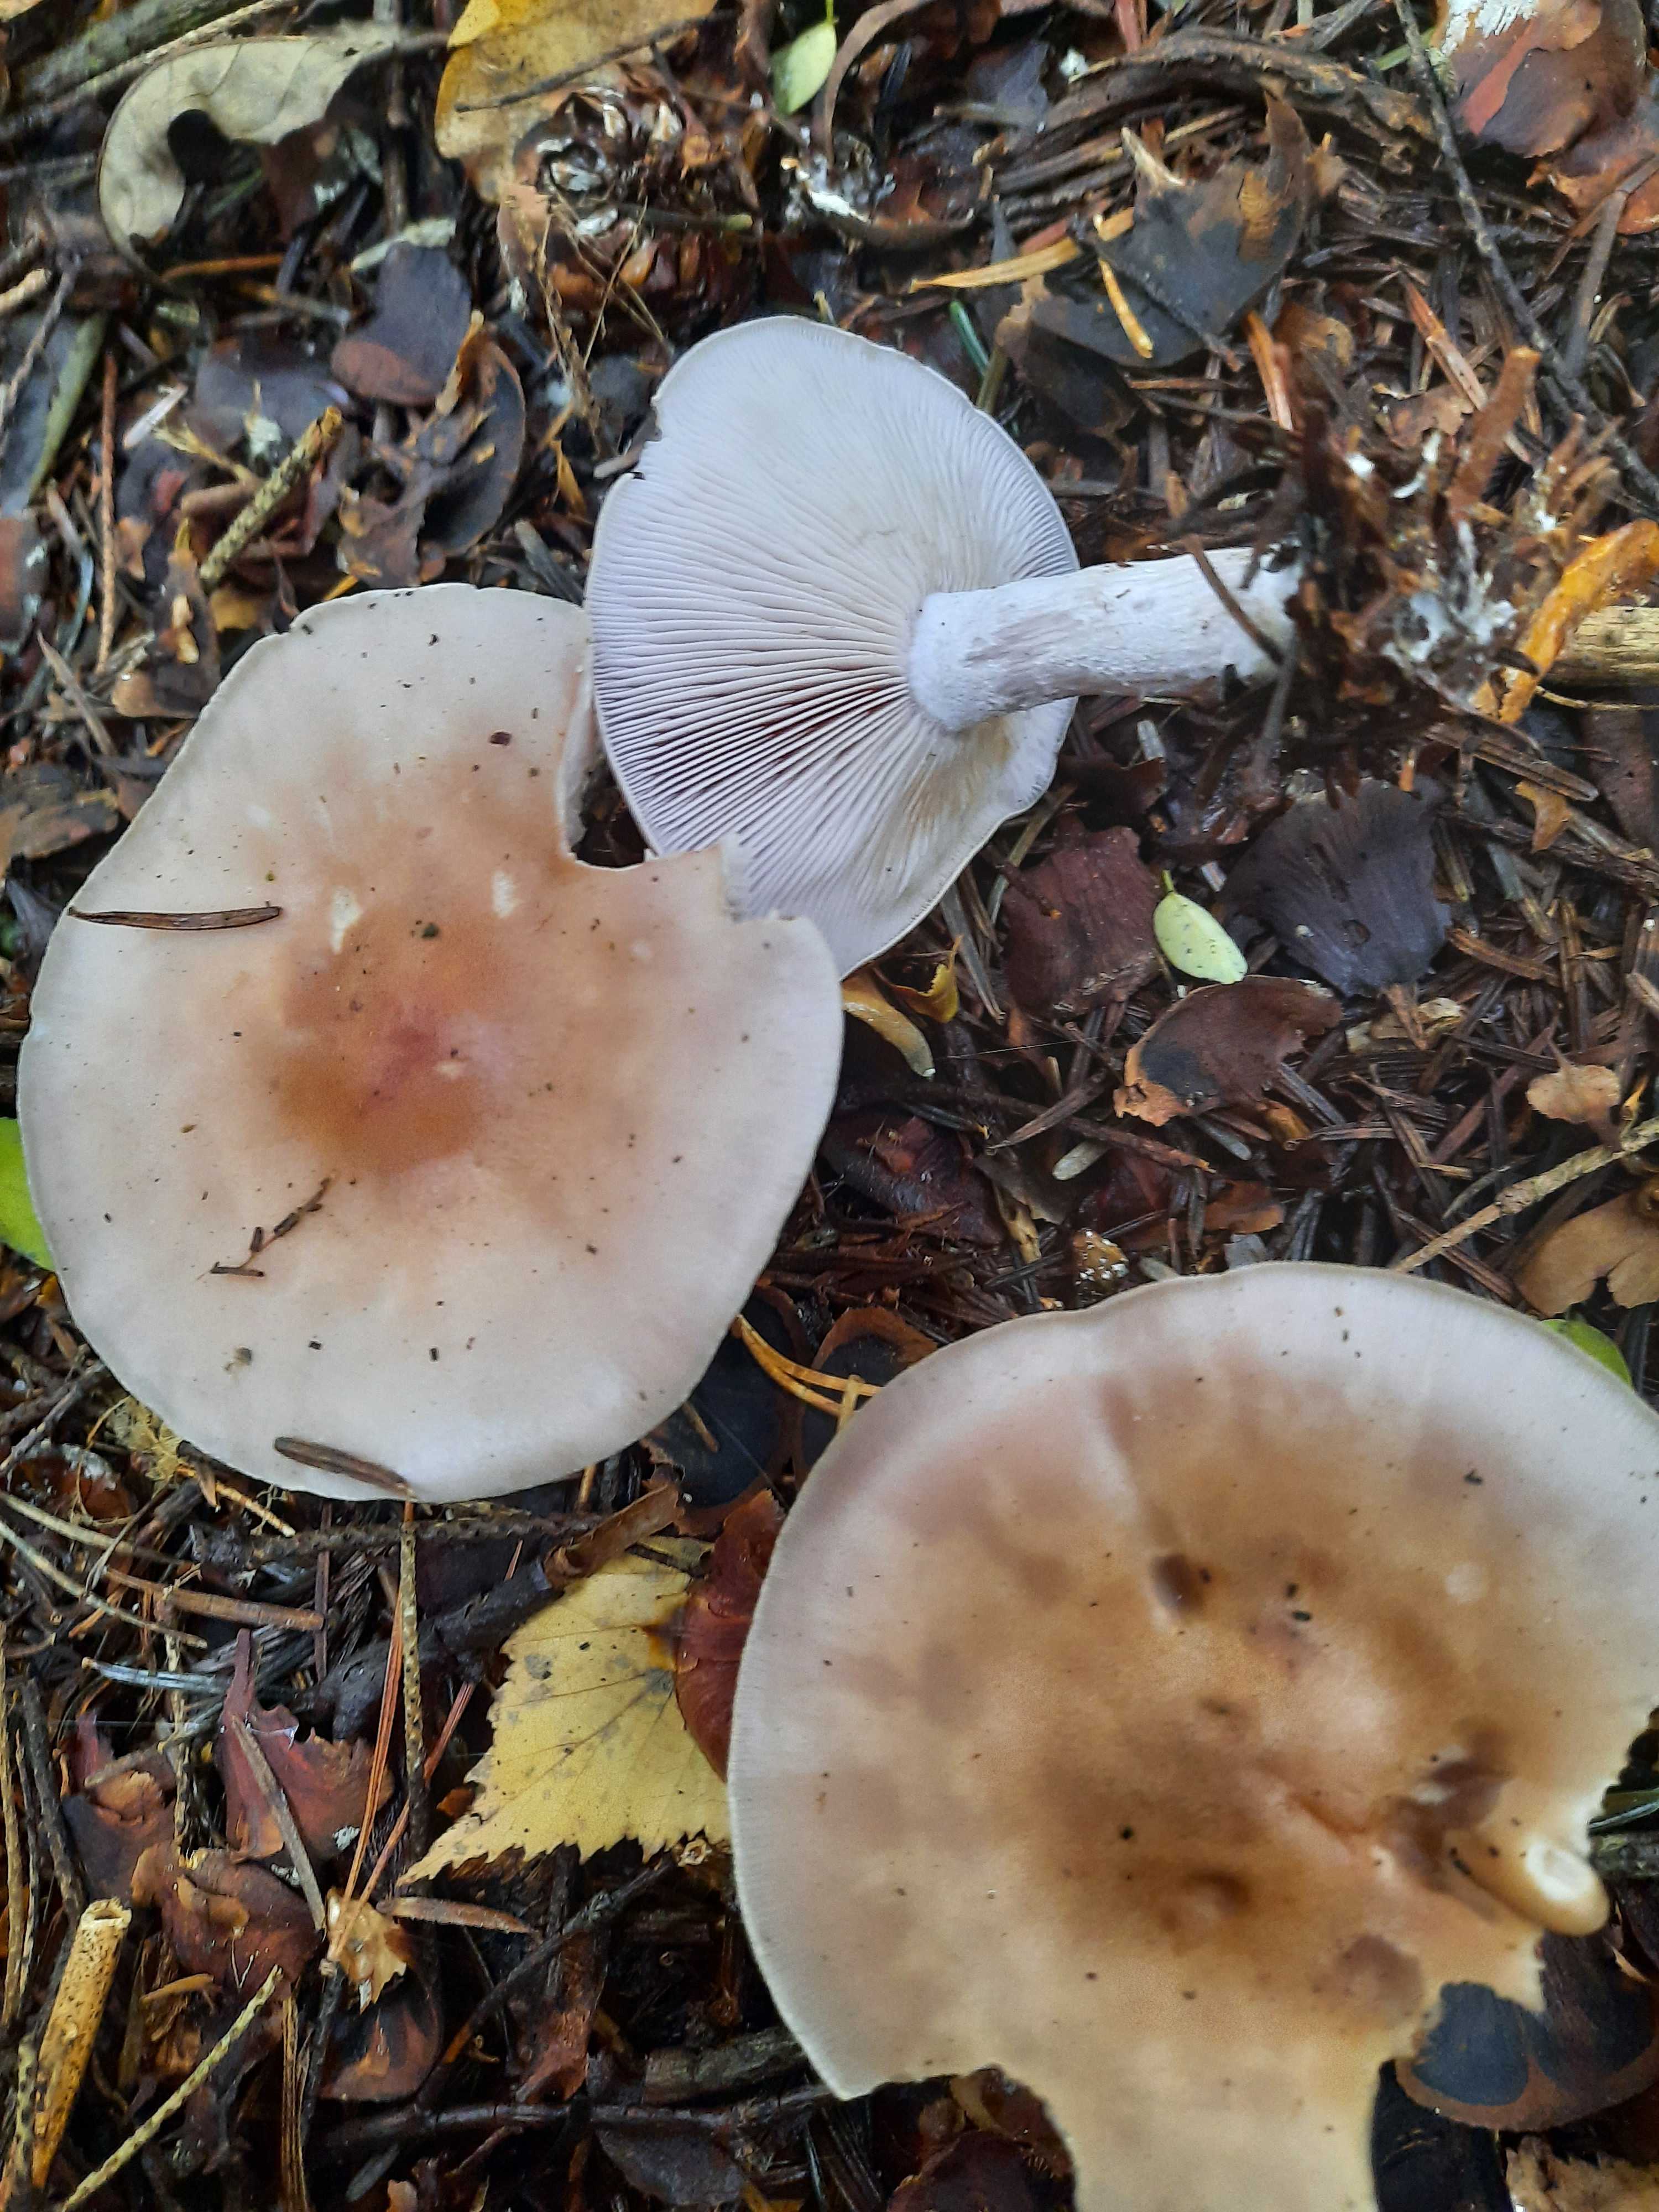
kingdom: Fungi
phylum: Basidiomycota
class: Agaricomycetes
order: Agaricales
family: Tricholomataceae
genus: Lepista
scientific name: Lepista nuda
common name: violet hekseringshat
